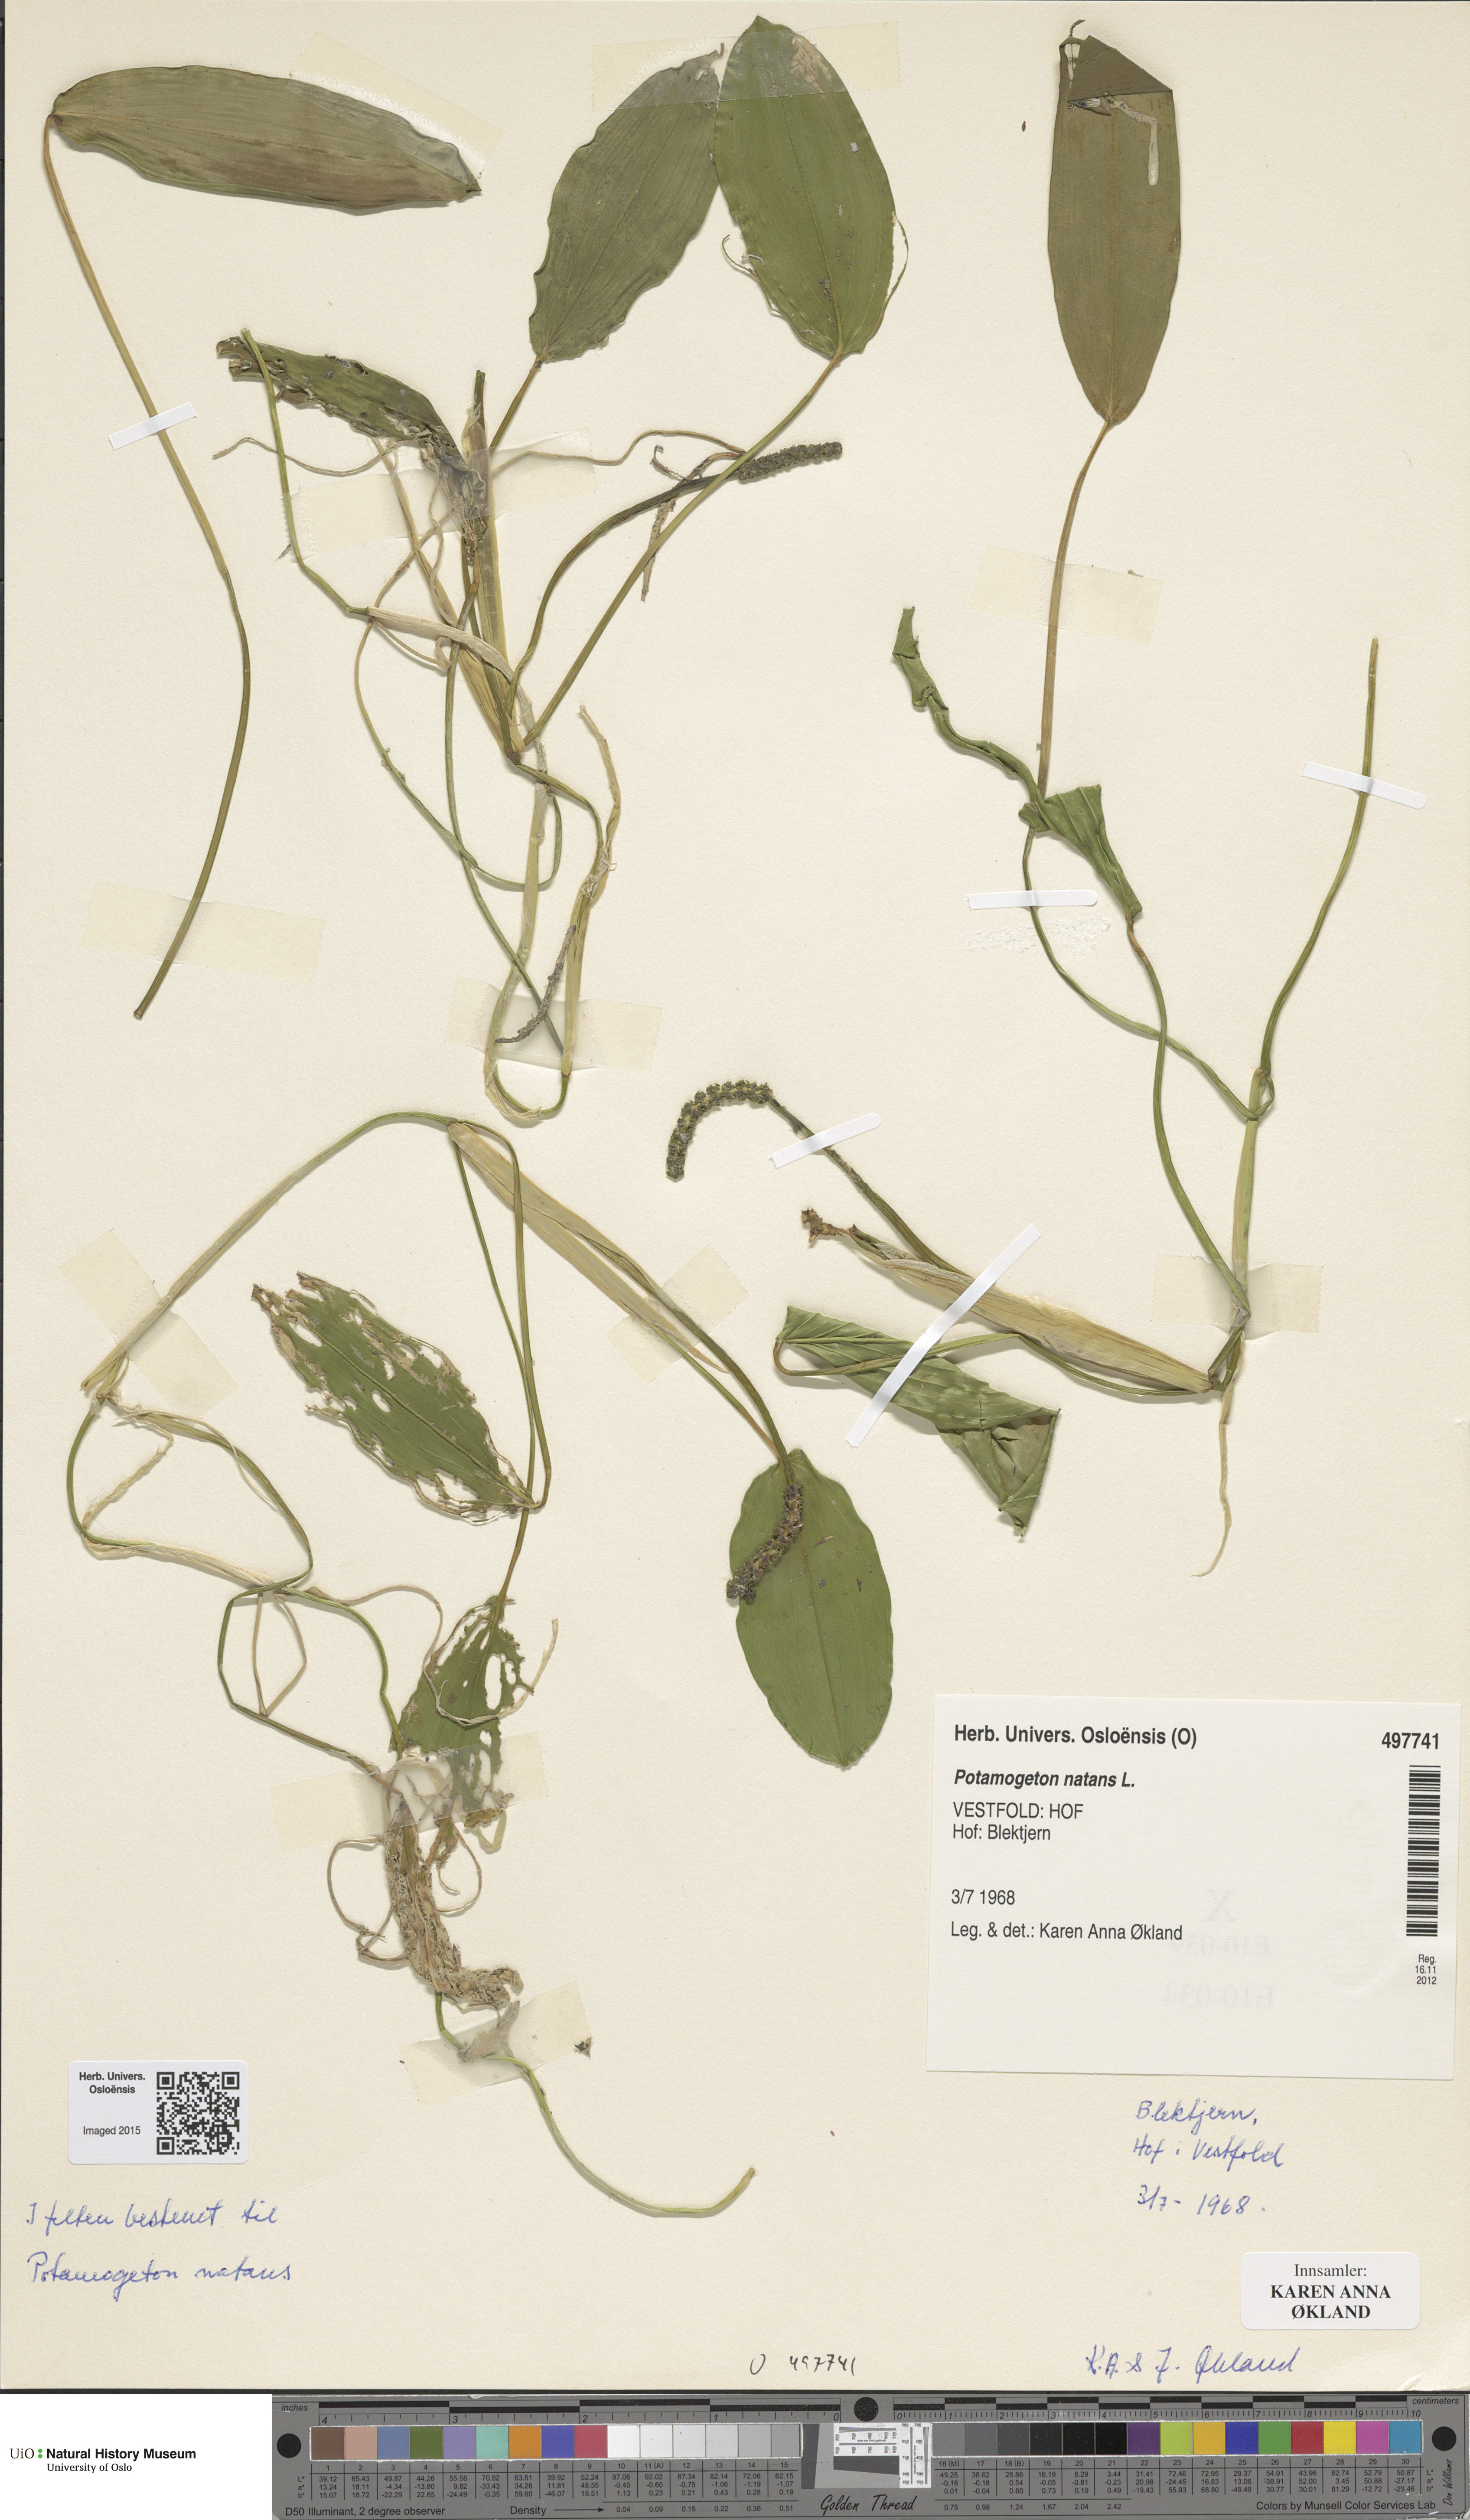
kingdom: Plantae
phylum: Tracheophyta
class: Liliopsida
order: Alismatales
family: Potamogetonaceae
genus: Potamogeton
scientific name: Potamogeton natans
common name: Broad-leaved pondweed
